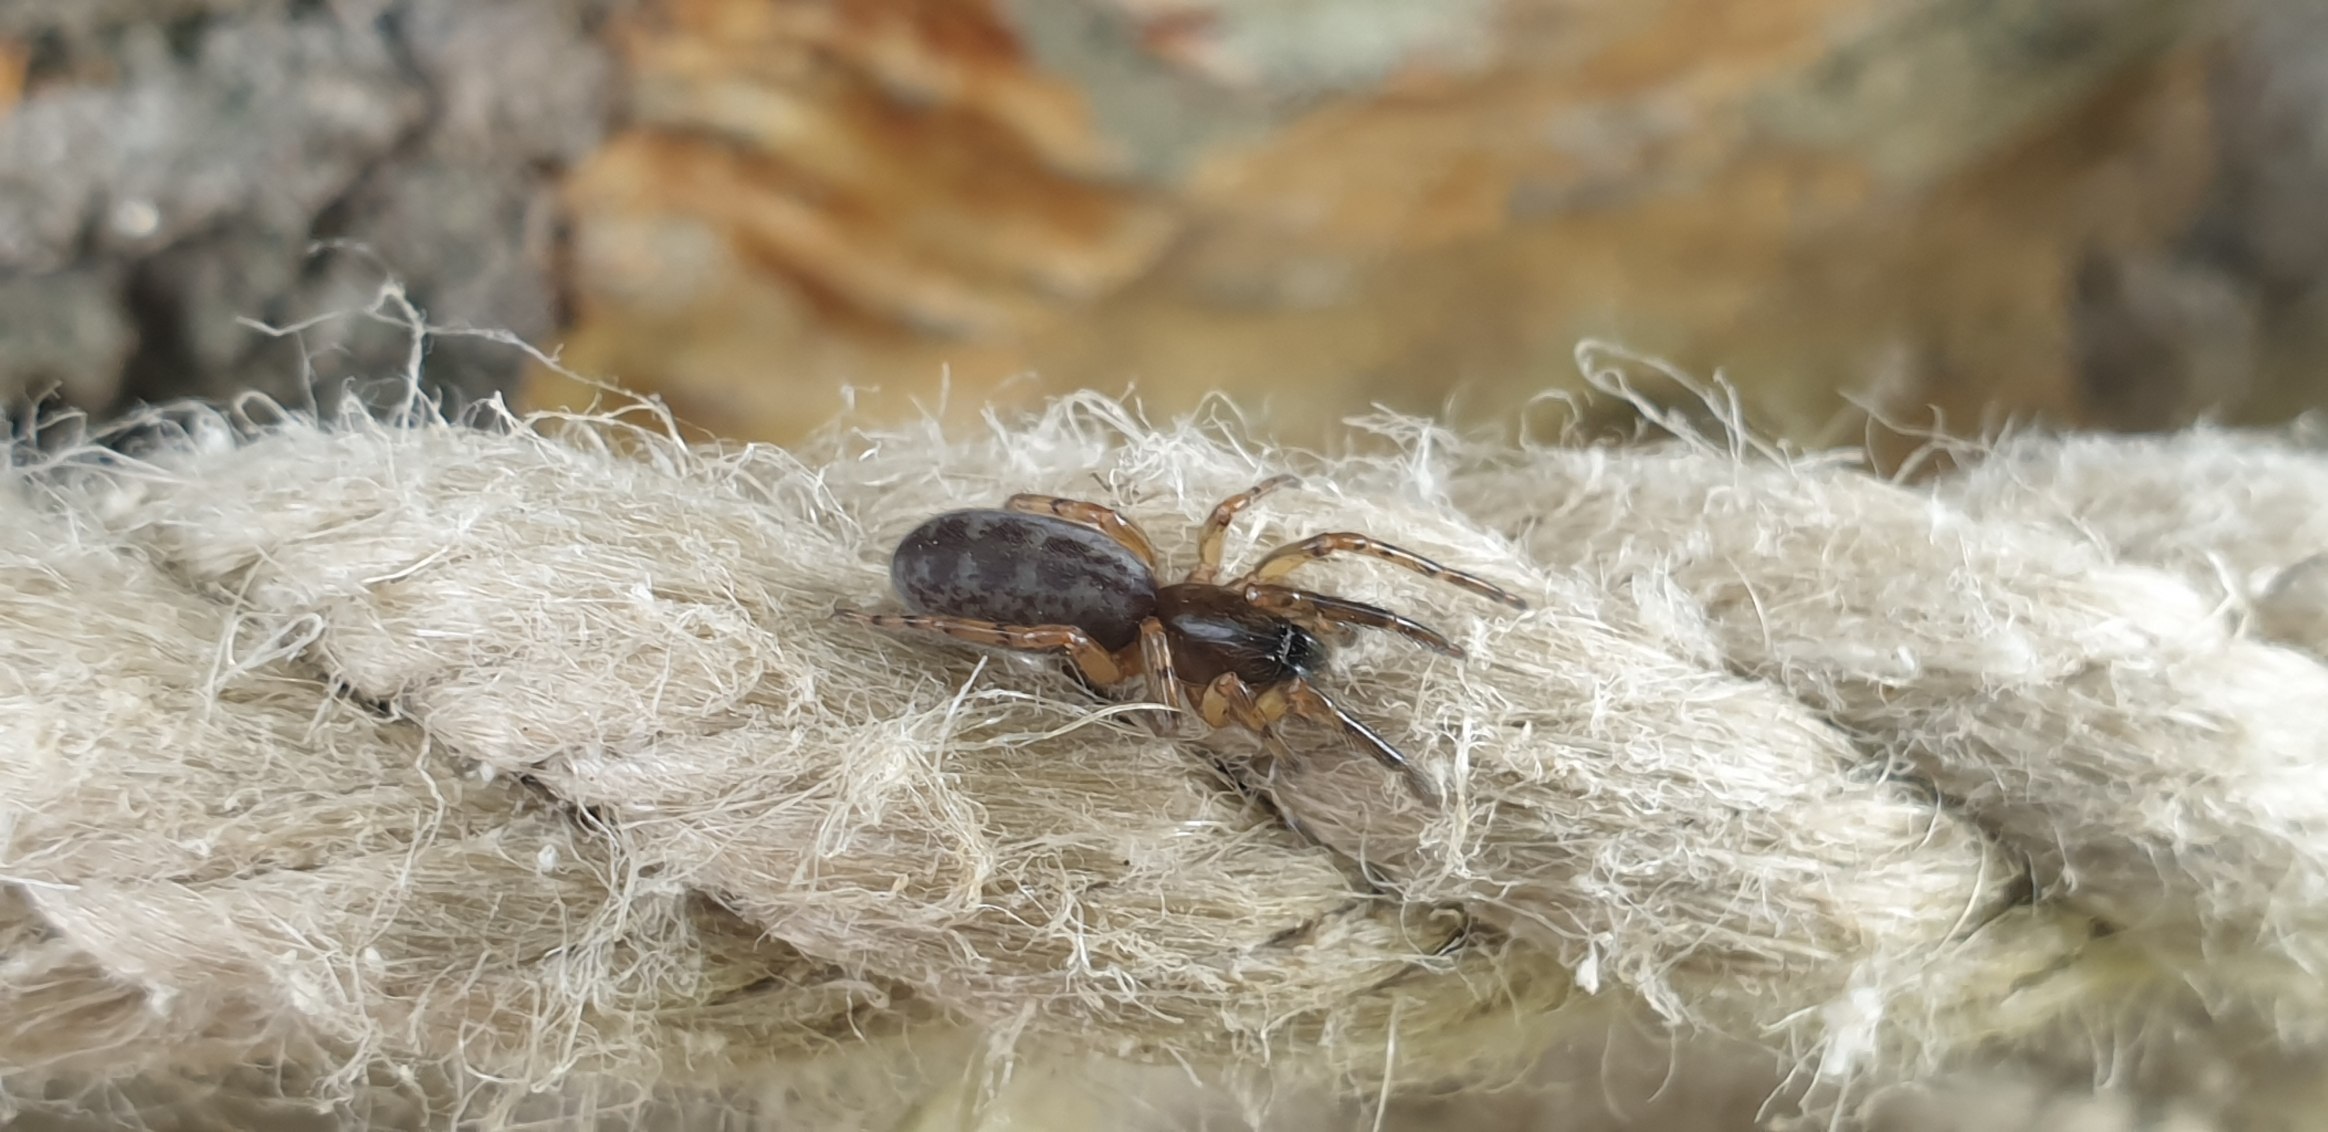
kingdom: Animalia
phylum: Arthropoda
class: Arachnida
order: Araneae
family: Segestriidae
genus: Segestria
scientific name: Segestria senoculata
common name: Snubletrådsedderkop
